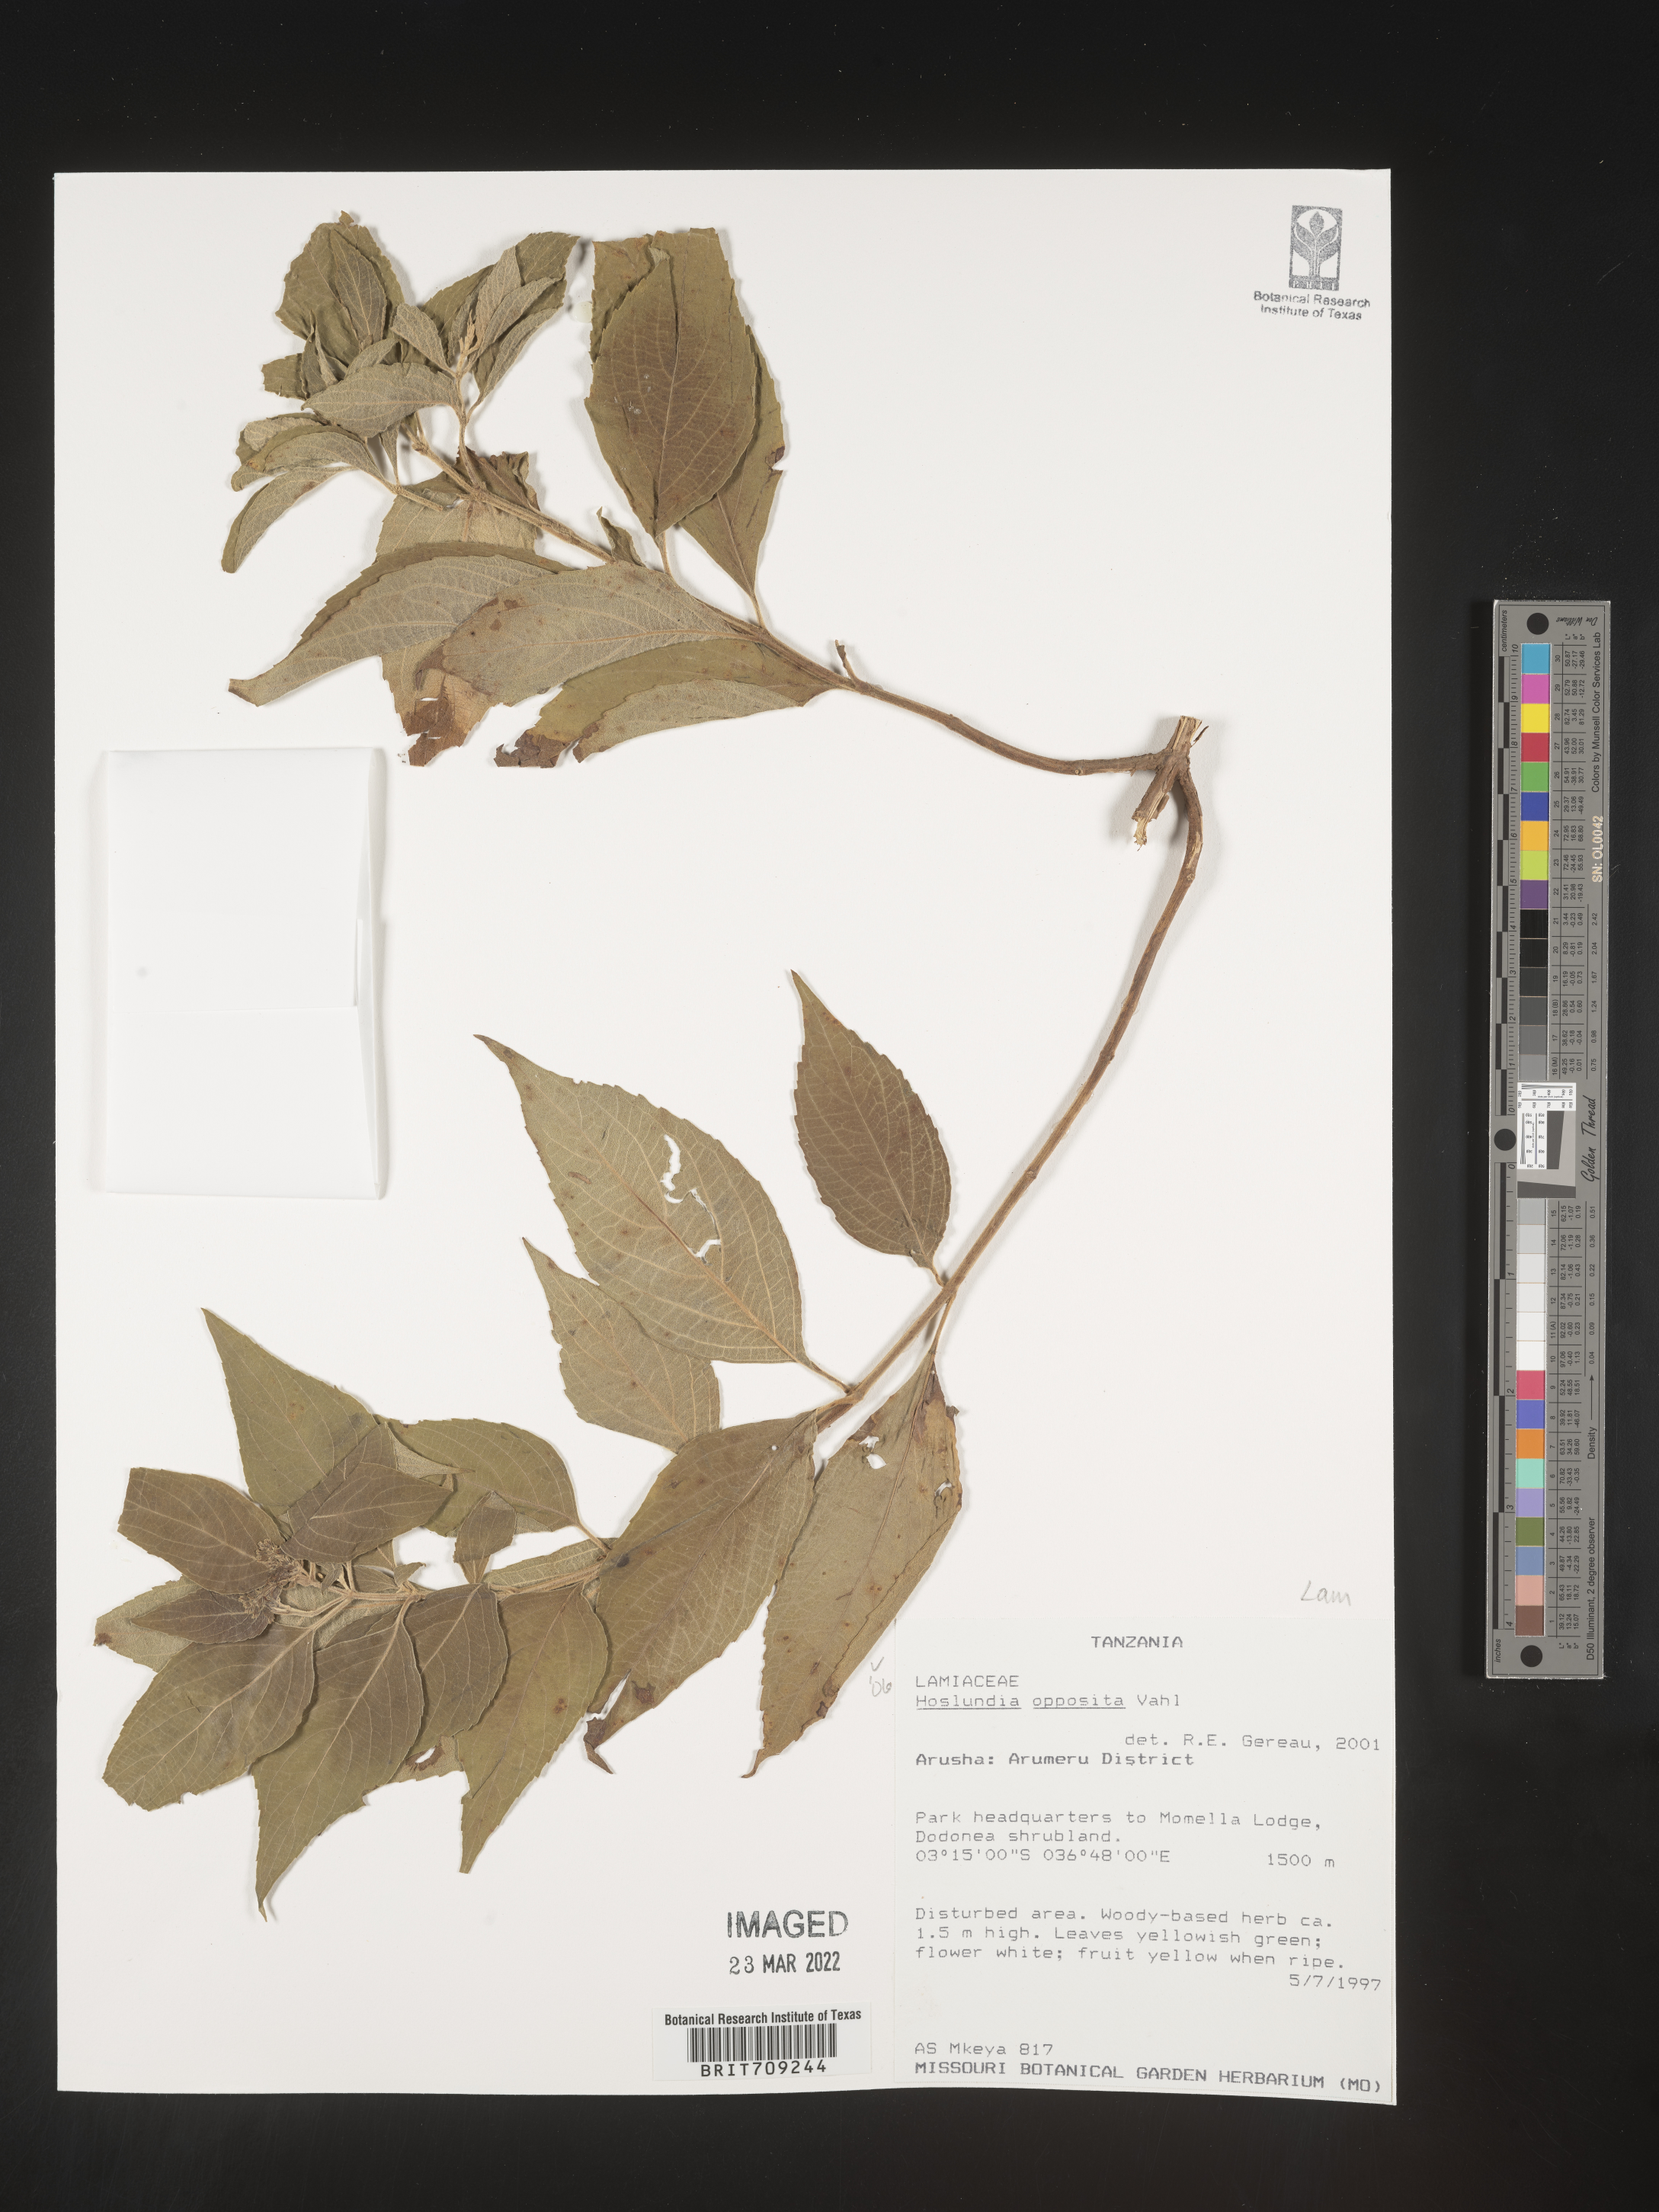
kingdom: Plantae
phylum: Tracheophyta
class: Magnoliopsida
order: Lamiales
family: Lamiaceae
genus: Hoslundia
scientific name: Hoslundia opposita
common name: Kamyuye
